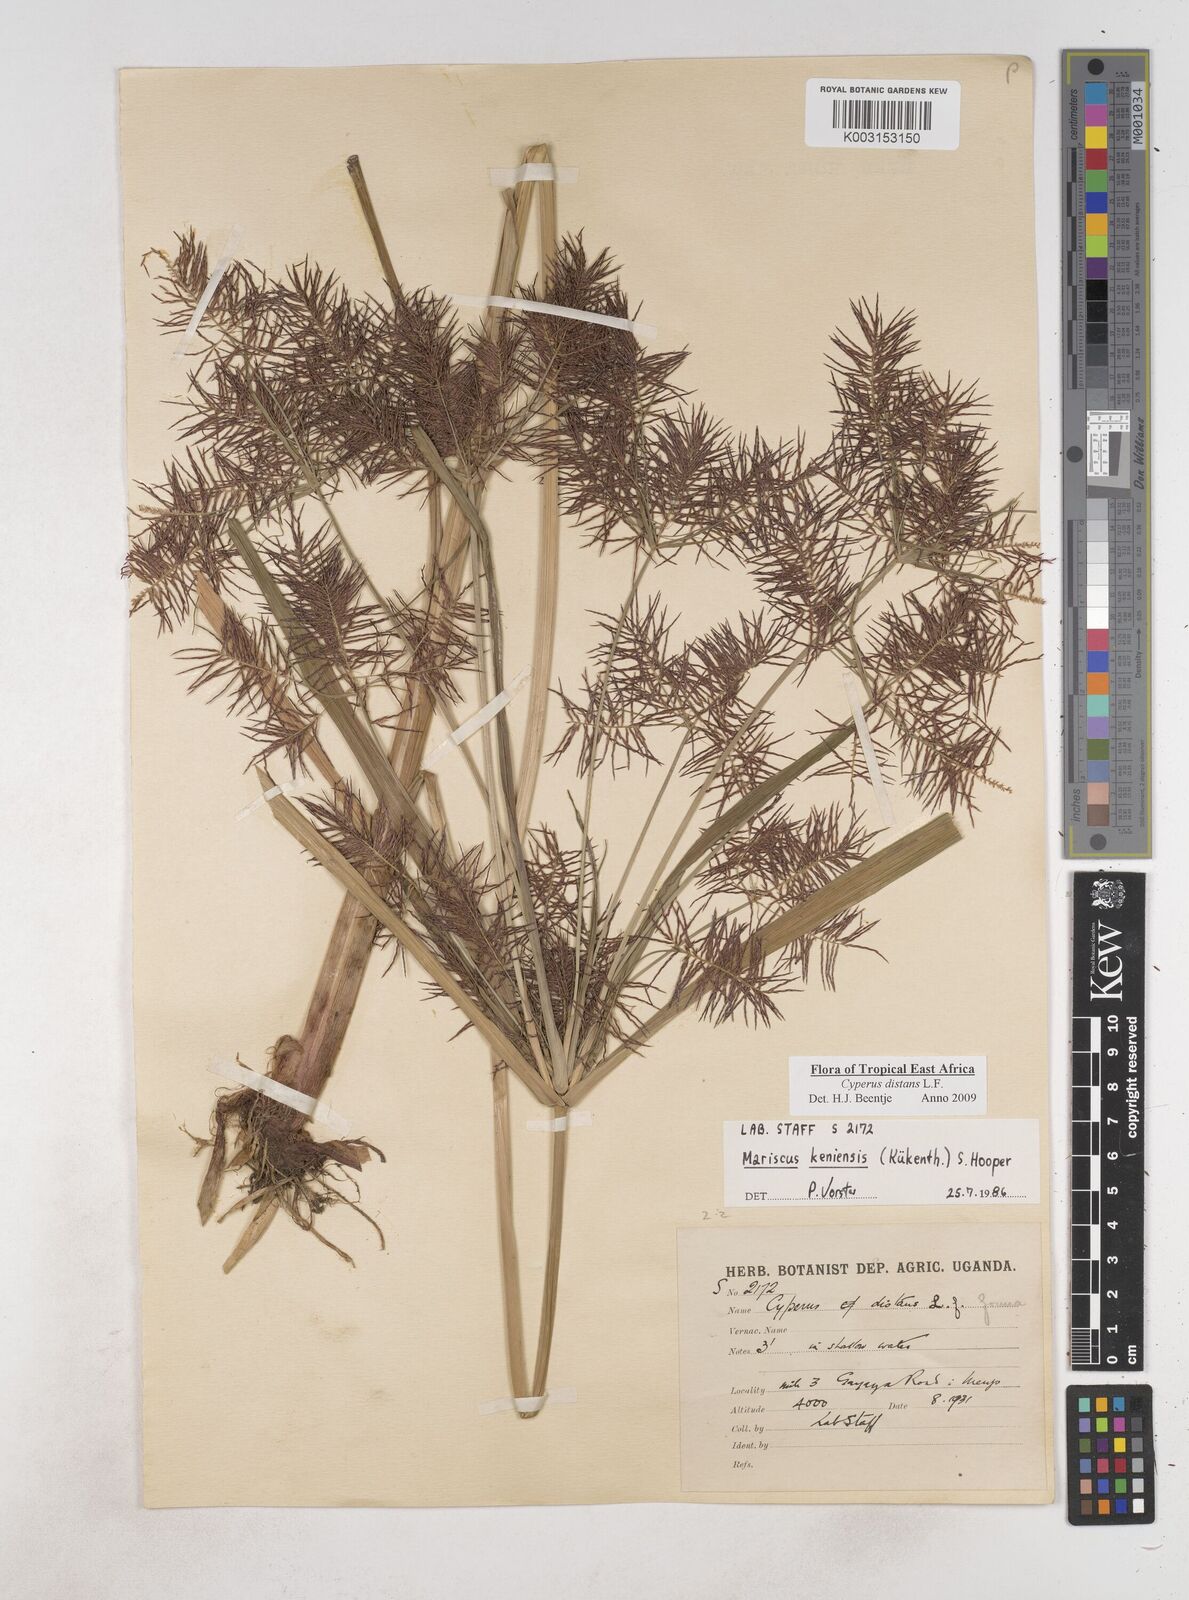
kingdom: Plantae
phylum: Tracheophyta
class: Liliopsida
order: Poales
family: Cyperaceae
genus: Cyperus
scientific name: Cyperus distans
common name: Slender cyperus
